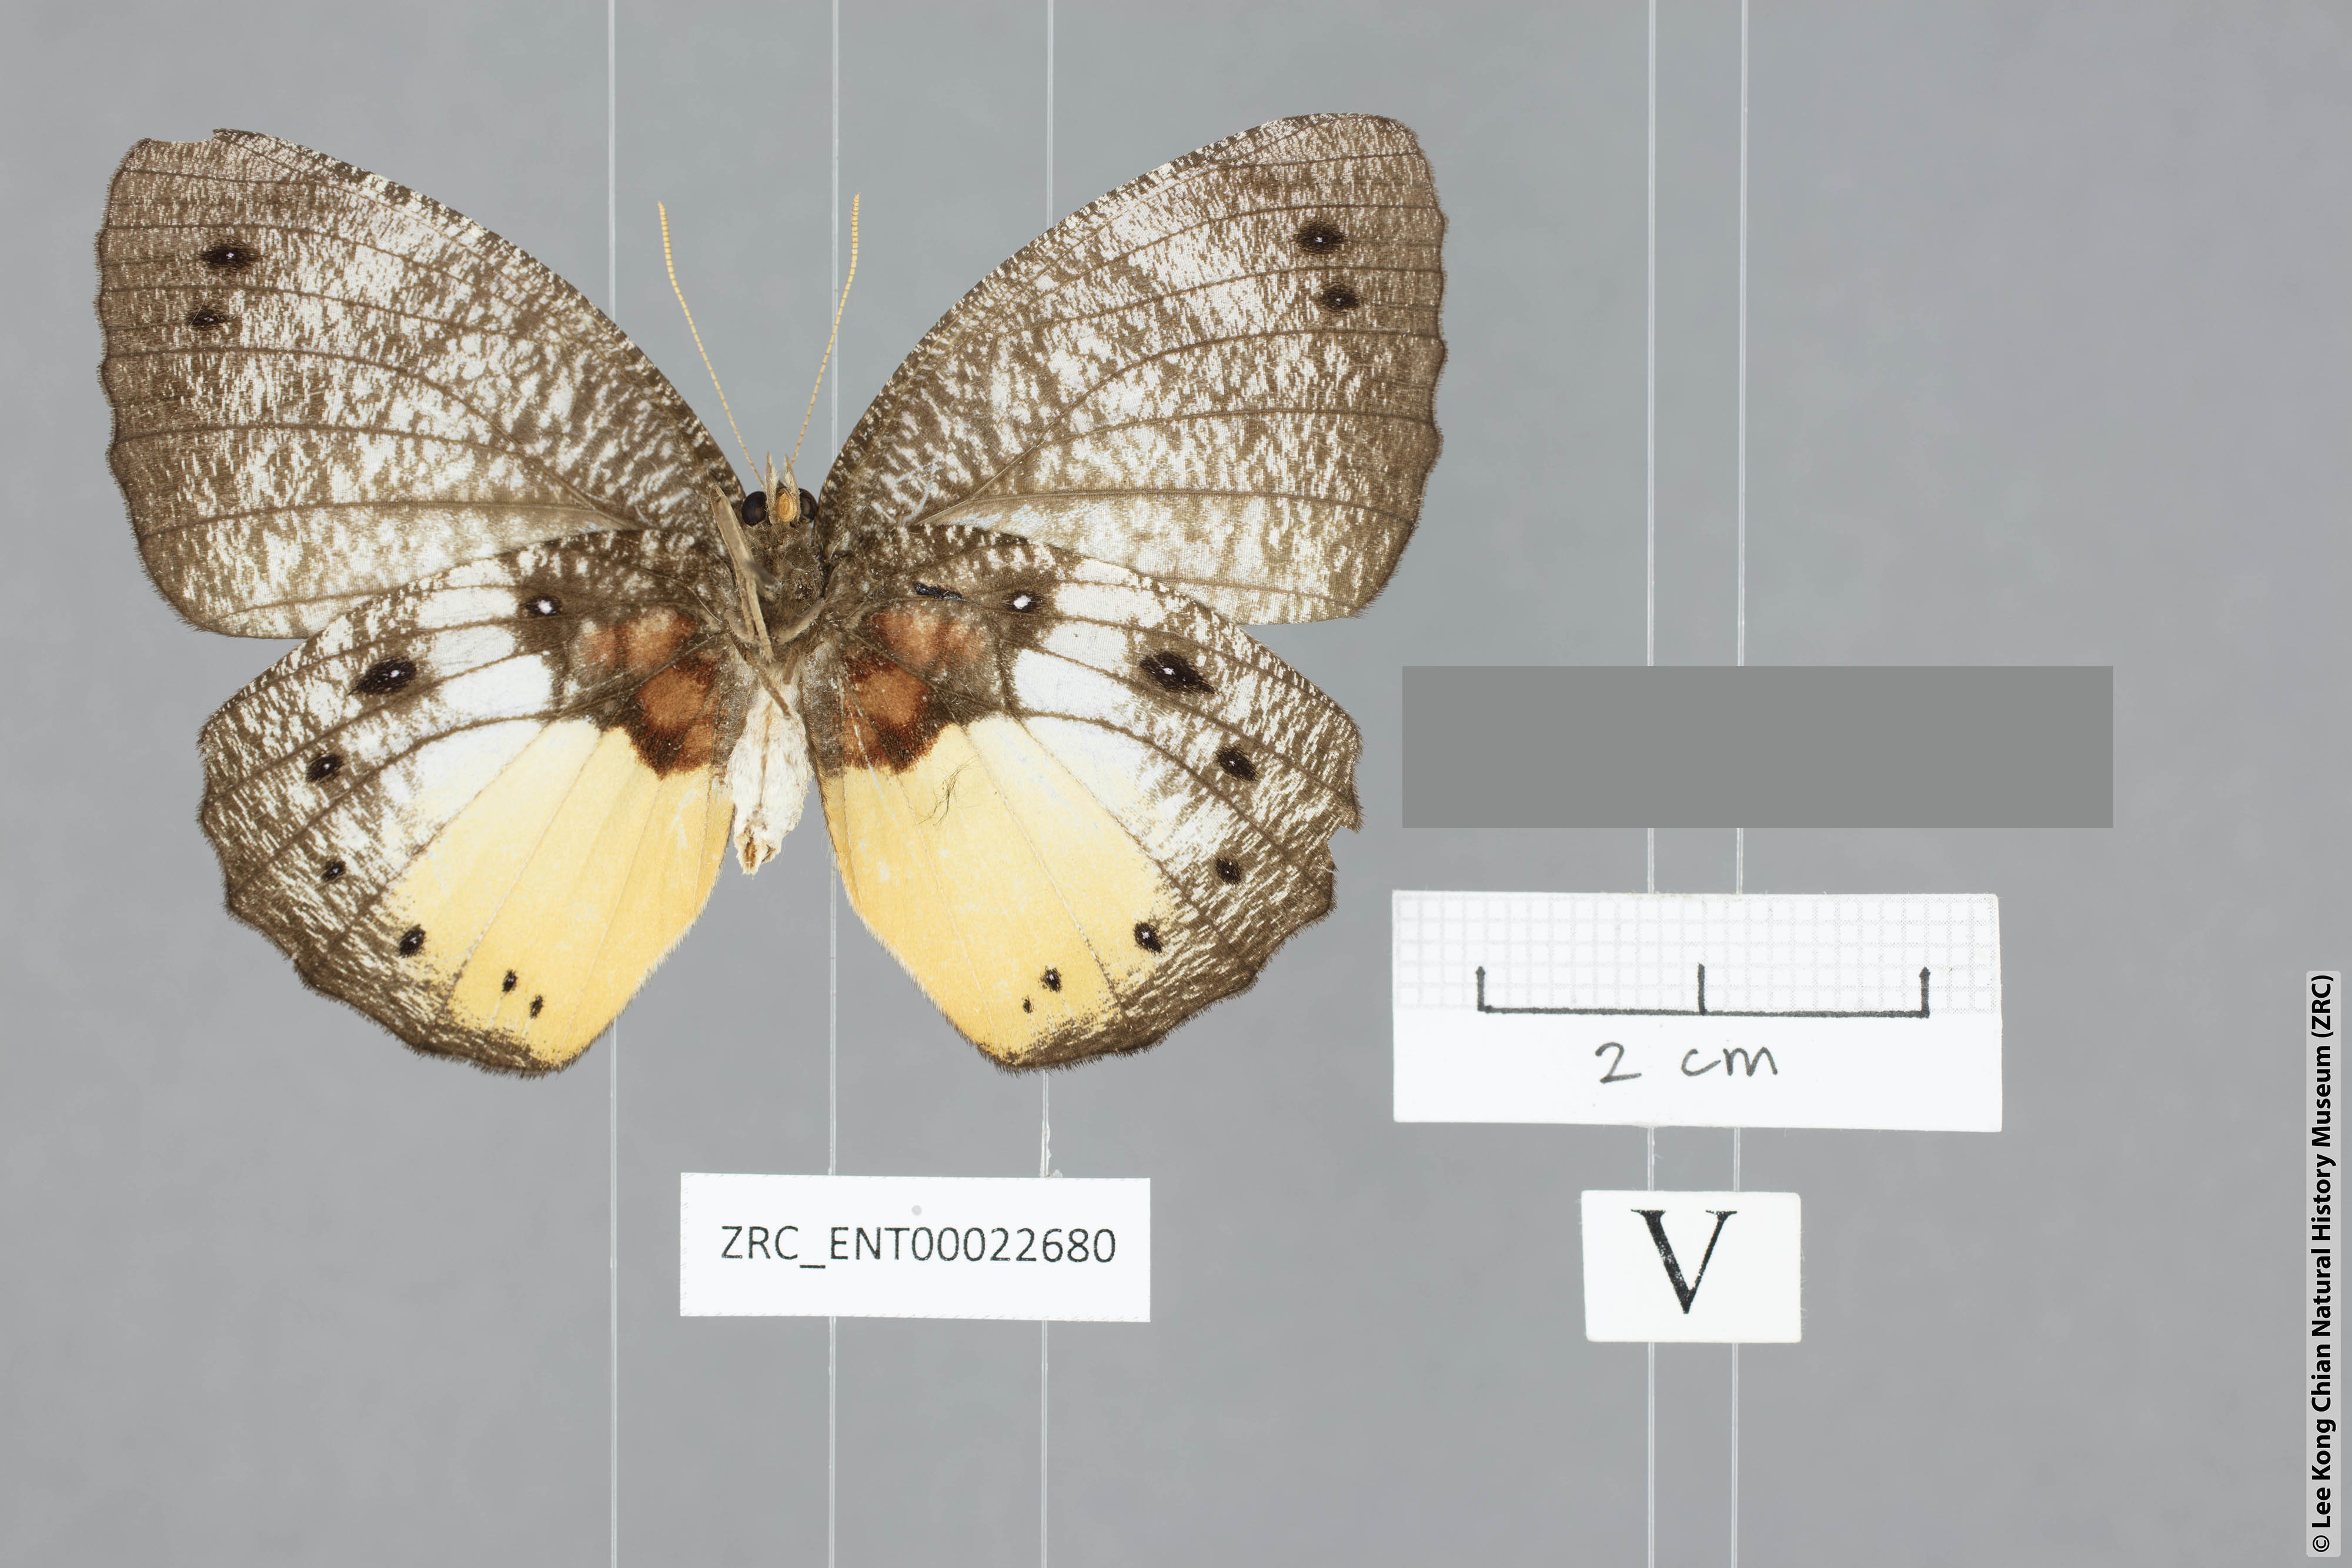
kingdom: Animalia
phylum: Arthropoda
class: Insecta
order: Lepidoptera
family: Nymphalidae
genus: Elymnias
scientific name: Elymnias esaca
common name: Green palmfly
